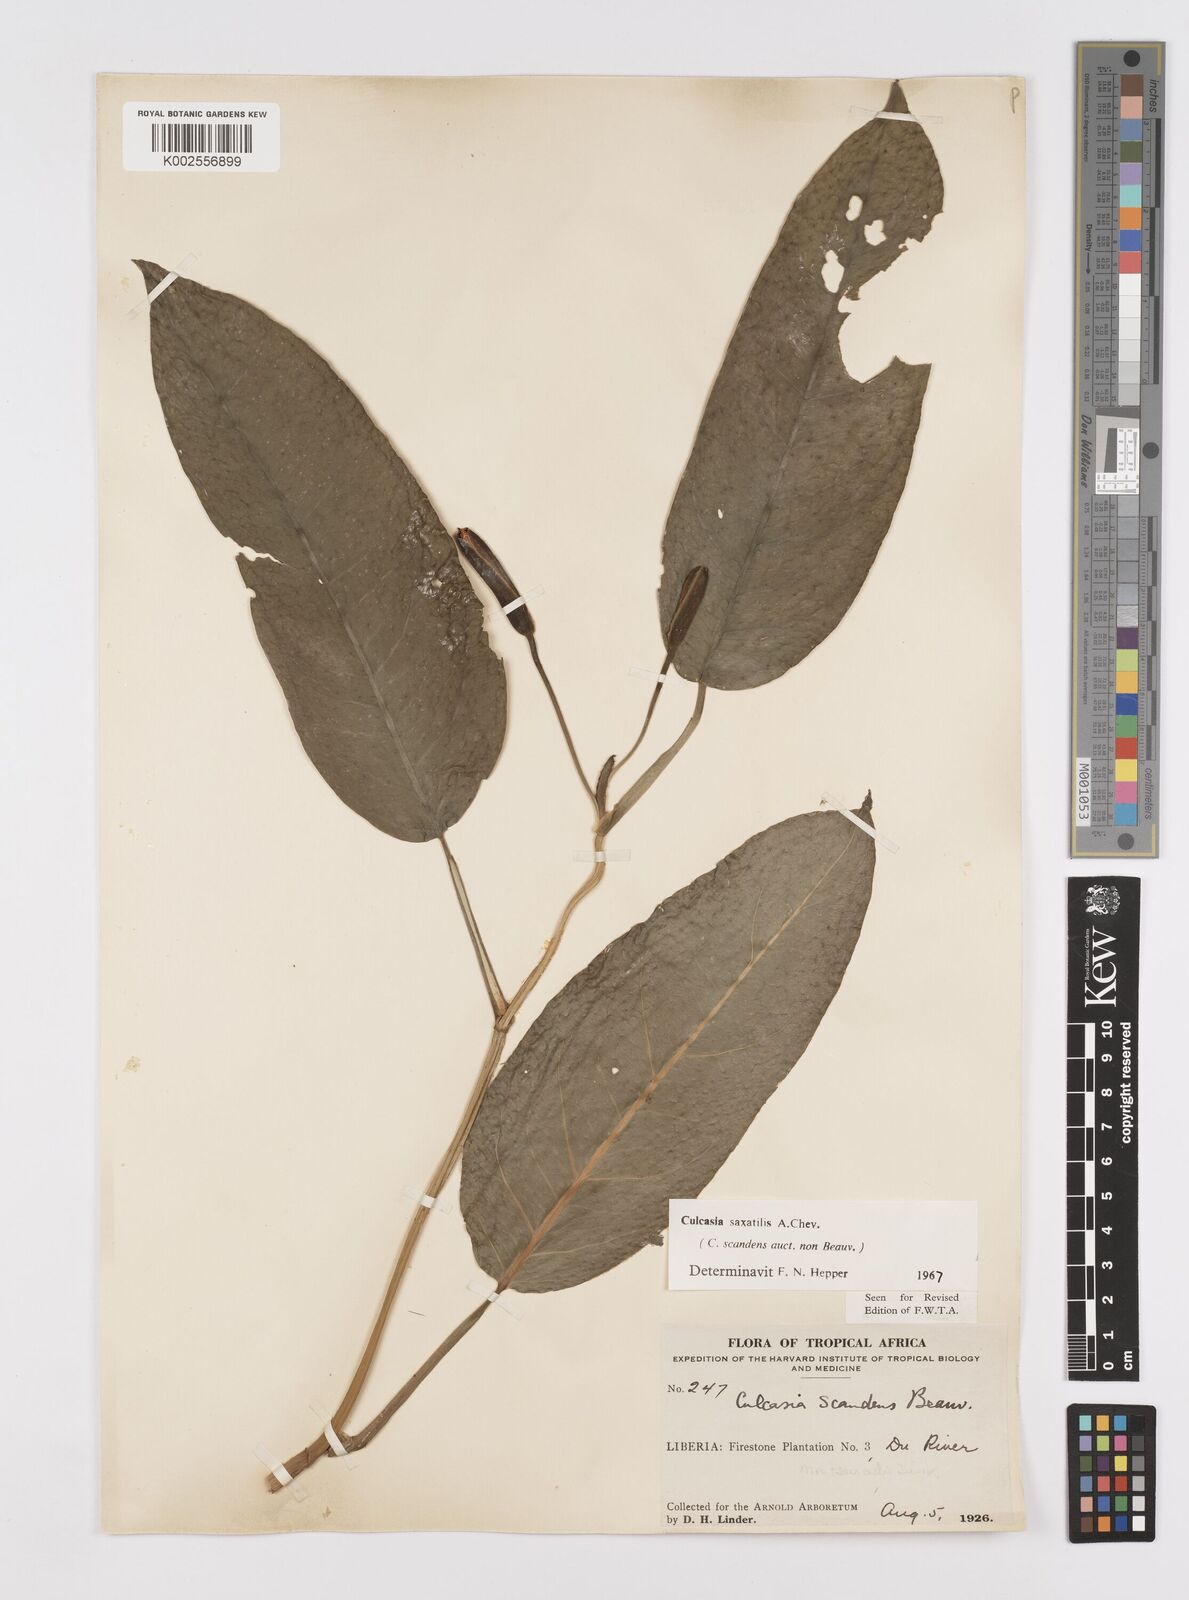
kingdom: Plantae
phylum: Tracheophyta
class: Liliopsida
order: Alismatales
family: Araceae
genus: Culcasia
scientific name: Culcasia scandens
